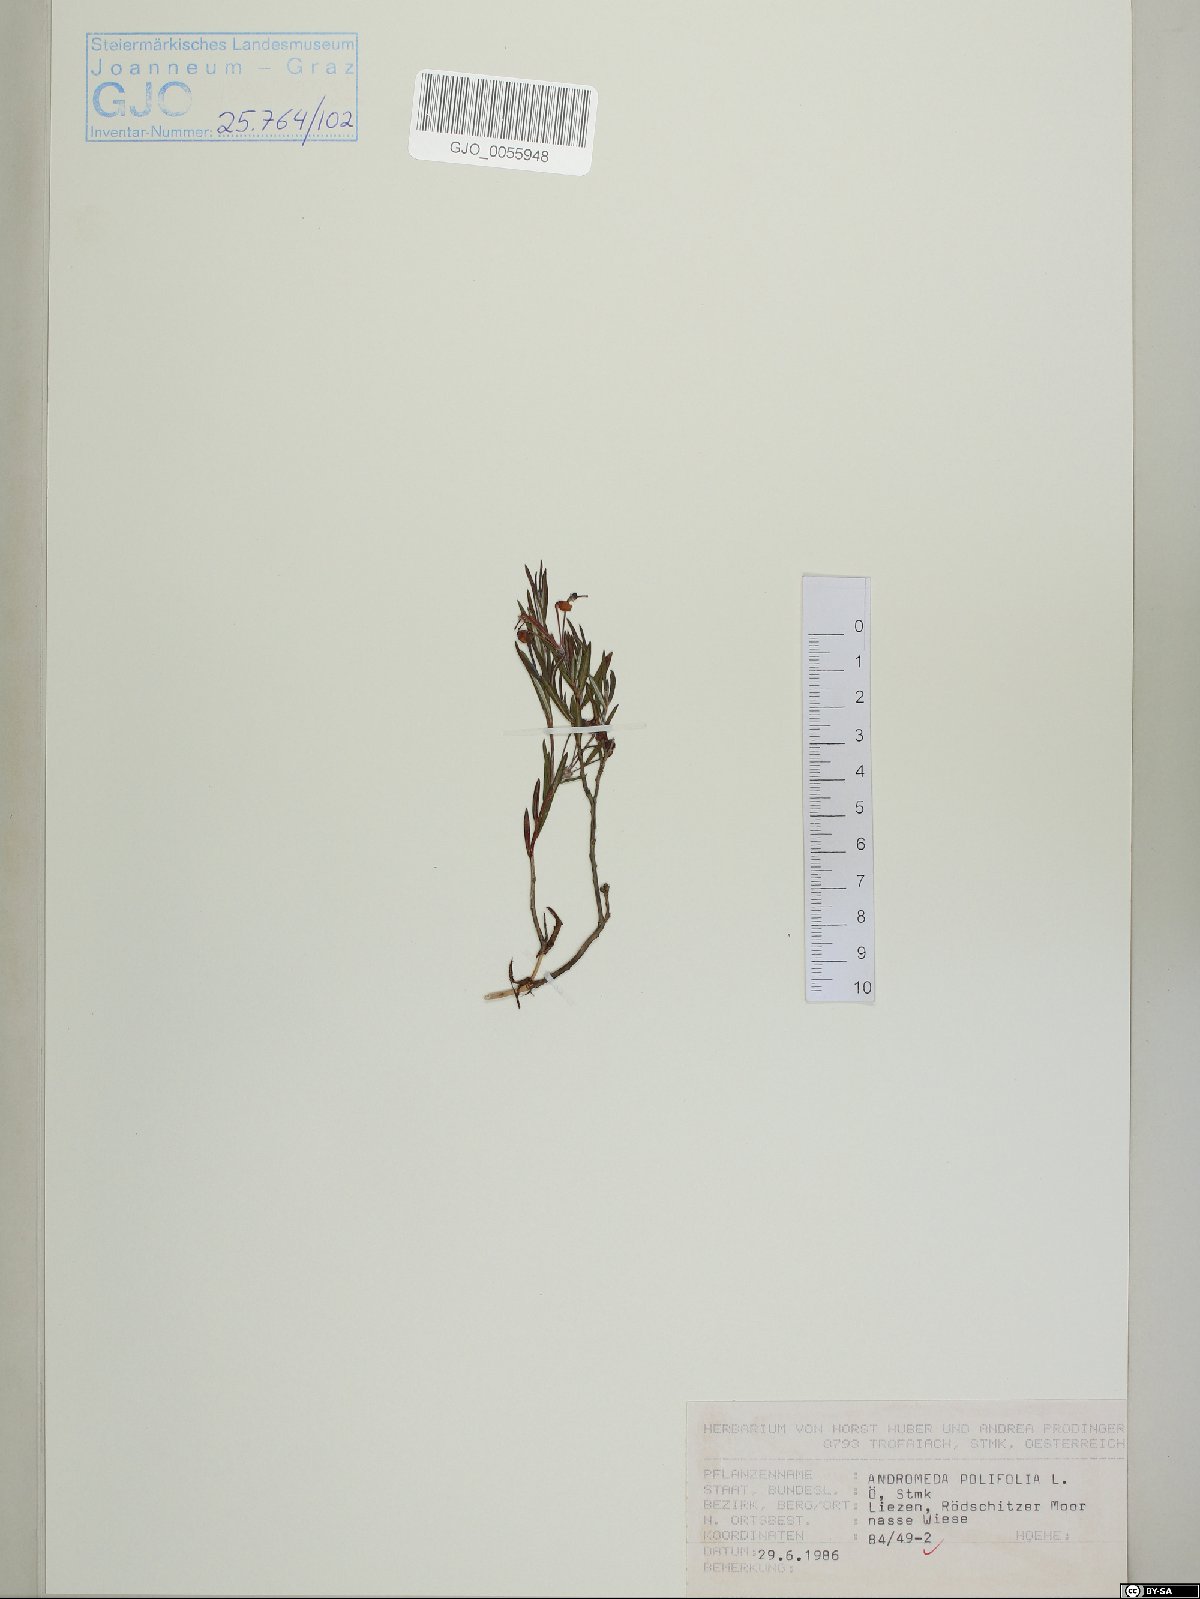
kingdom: Plantae
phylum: Tracheophyta
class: Magnoliopsida
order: Ericales
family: Ericaceae
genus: Andromeda
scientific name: Andromeda polifolia
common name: Bog-rosemary
